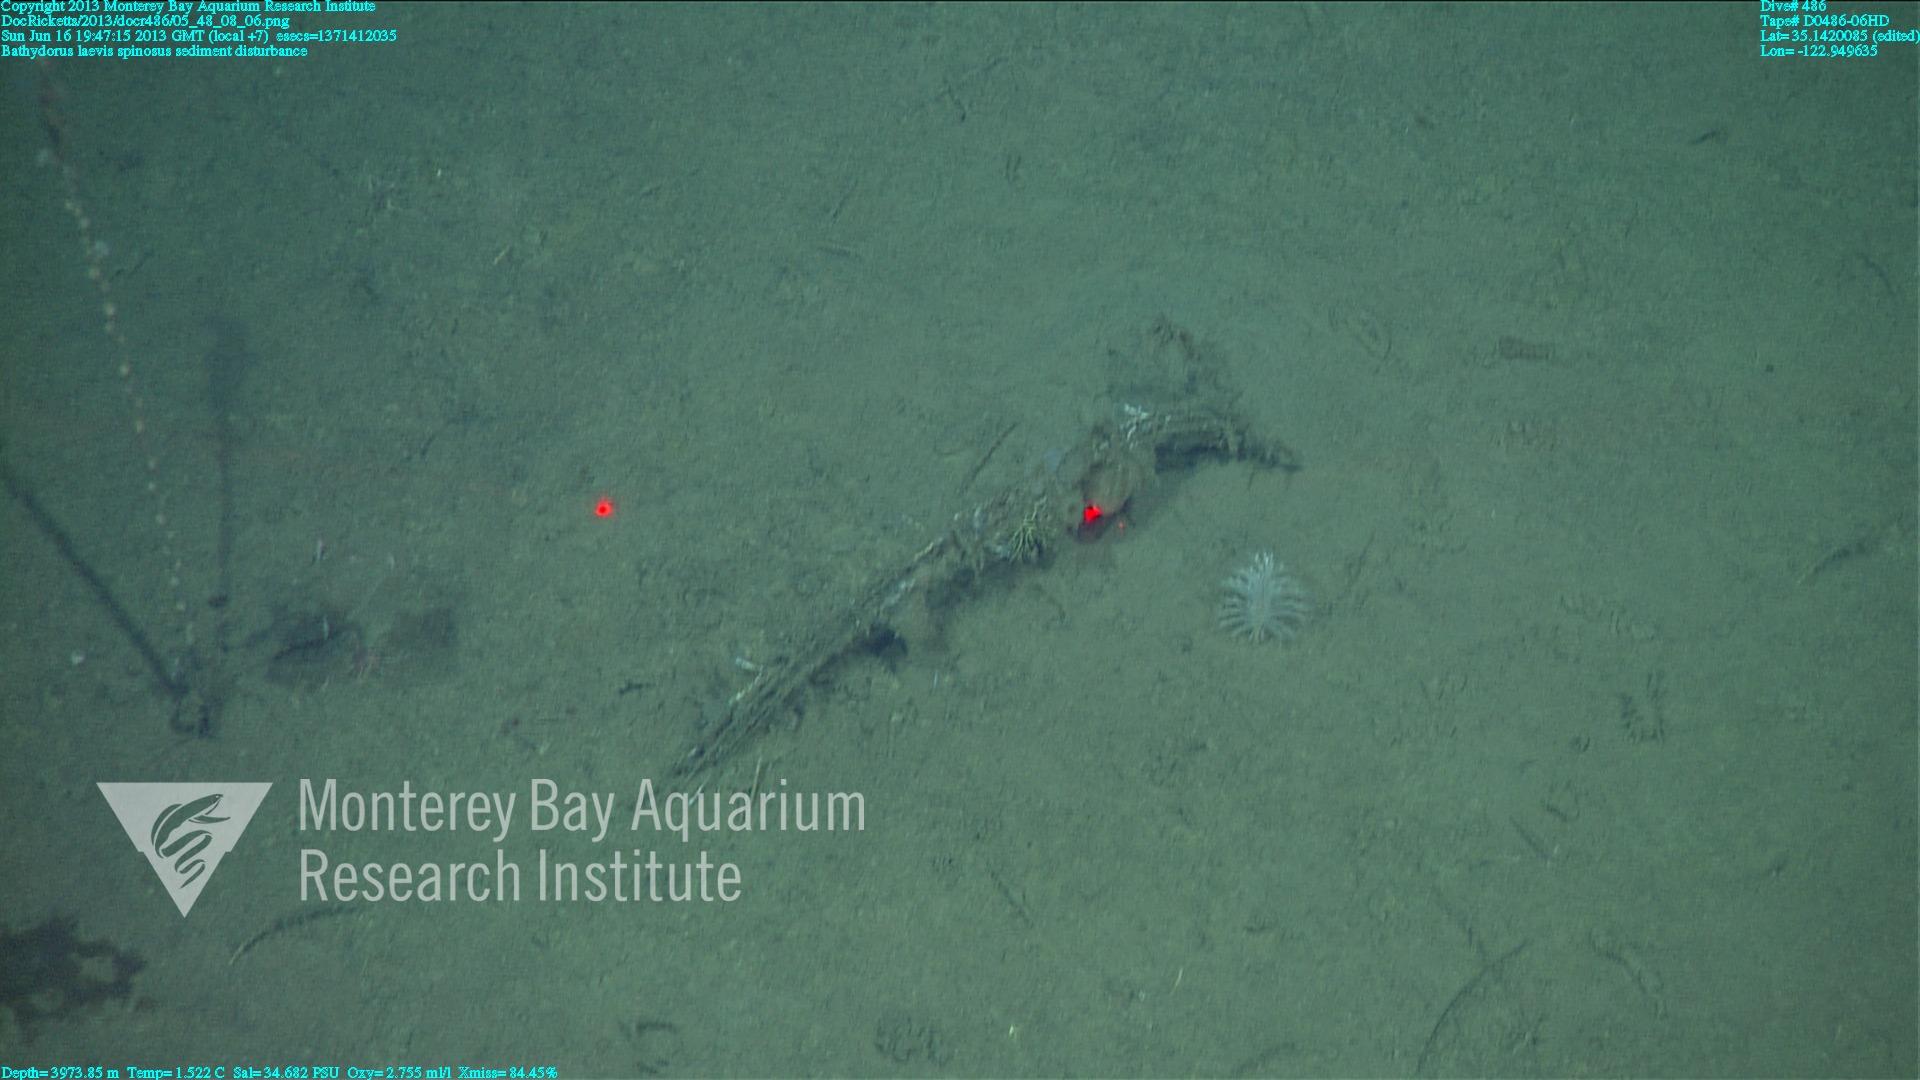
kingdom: Animalia
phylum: Porifera
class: Hexactinellida
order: Lyssacinosida
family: Rossellidae
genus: Bathydorus
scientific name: Bathydorus spinosus
